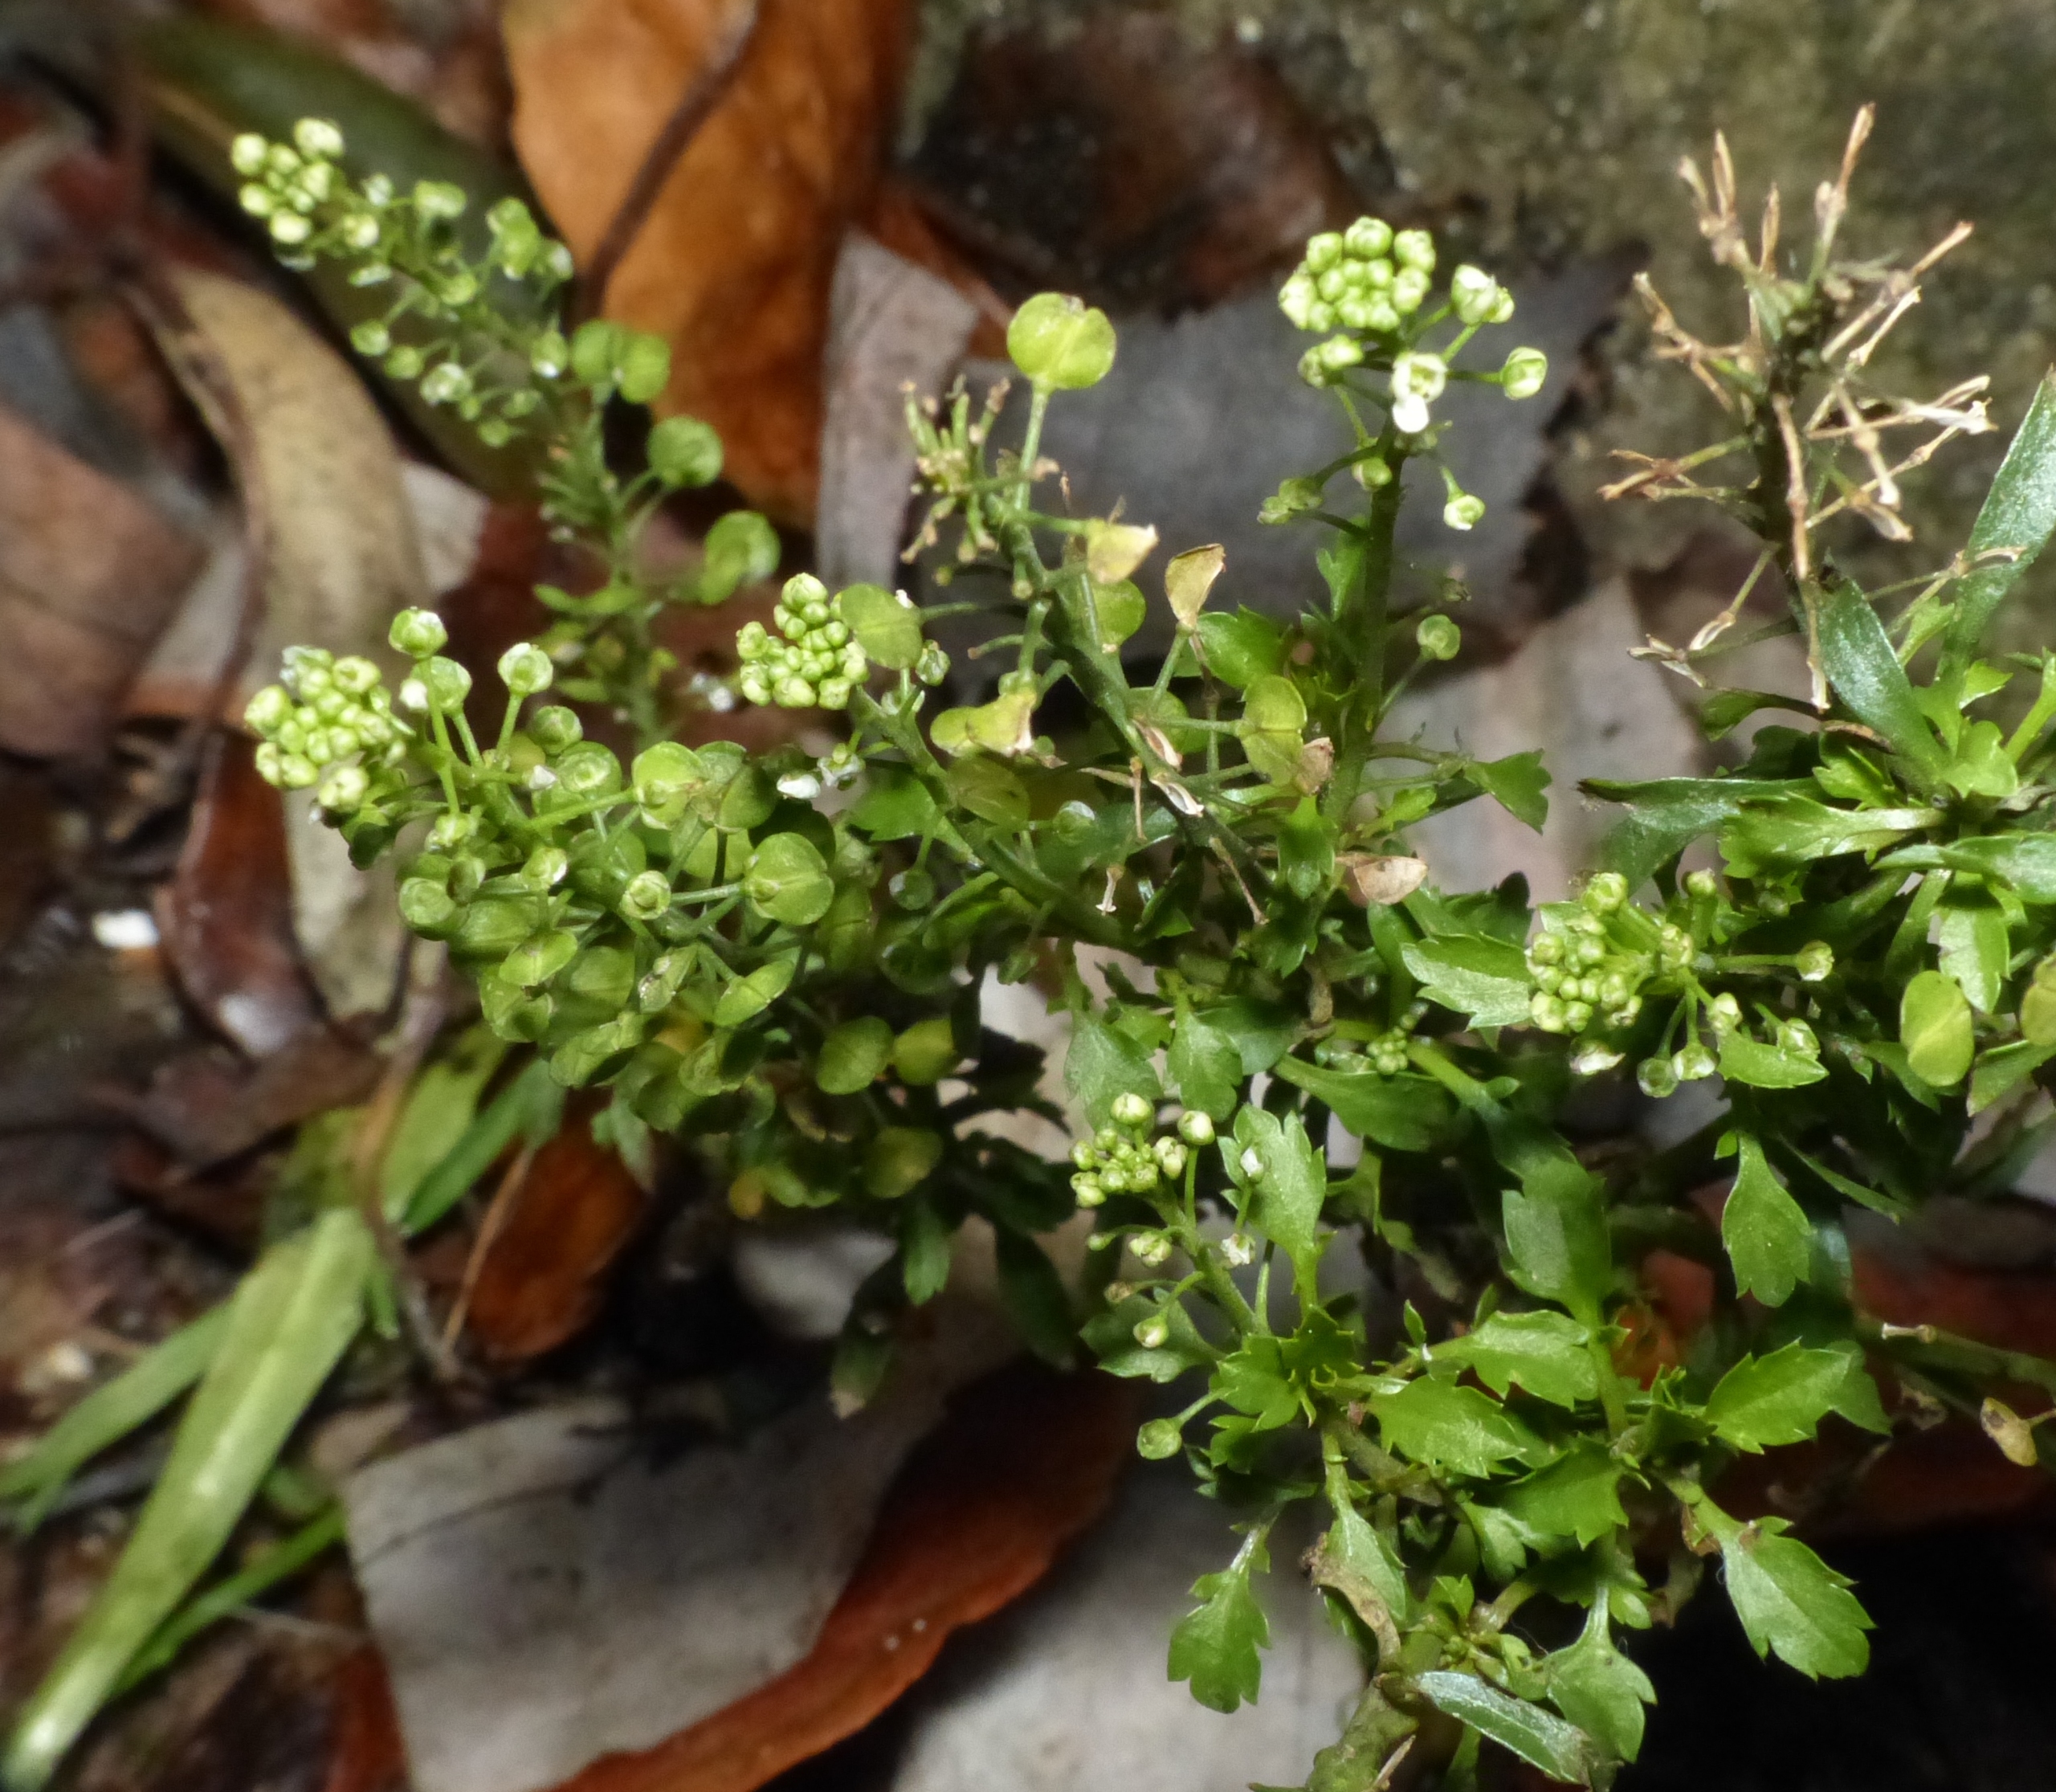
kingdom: Plantae
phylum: Tracheophyta
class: Magnoliopsida
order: Brassicales
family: Brassicaceae
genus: Lepidium
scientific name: Lepidium densiflorum
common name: Vingefrøet karse
